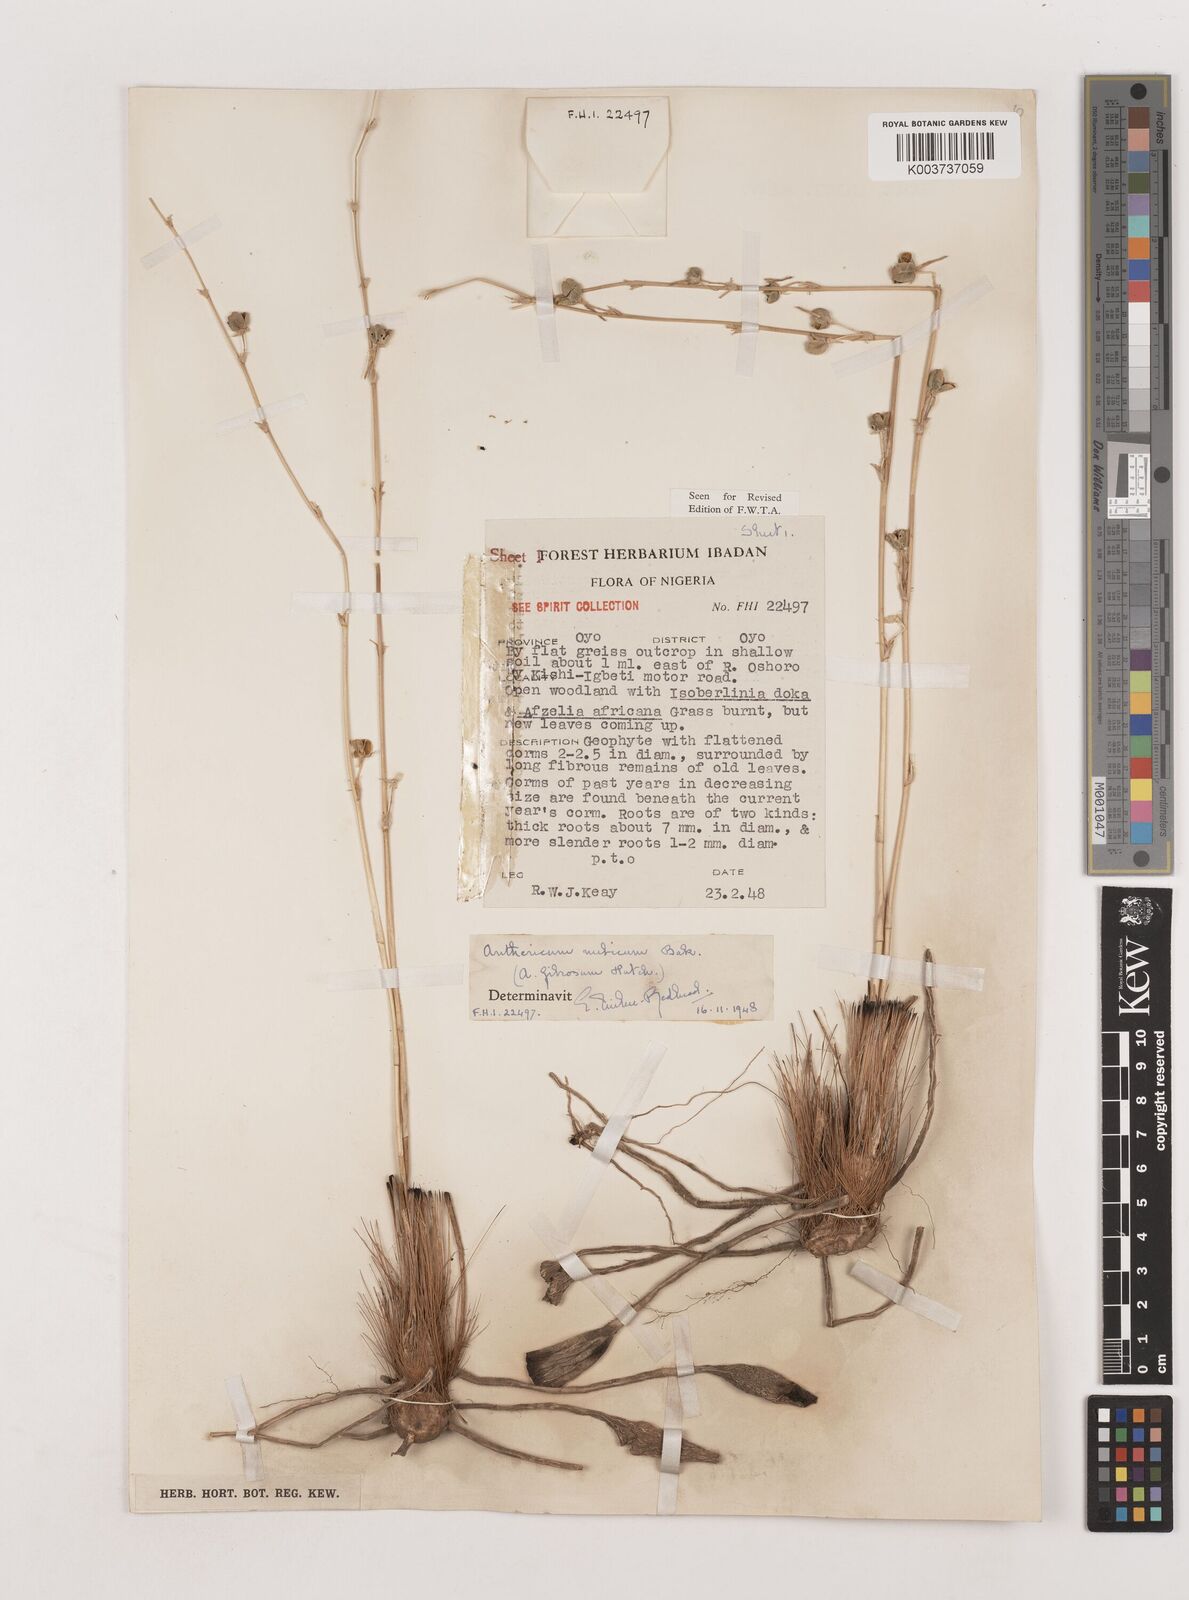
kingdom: Plantae
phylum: Tracheophyta
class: Liliopsida
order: Asparagales
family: Asparagaceae
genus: Chlorophytum
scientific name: Chlorophytum nubicum
